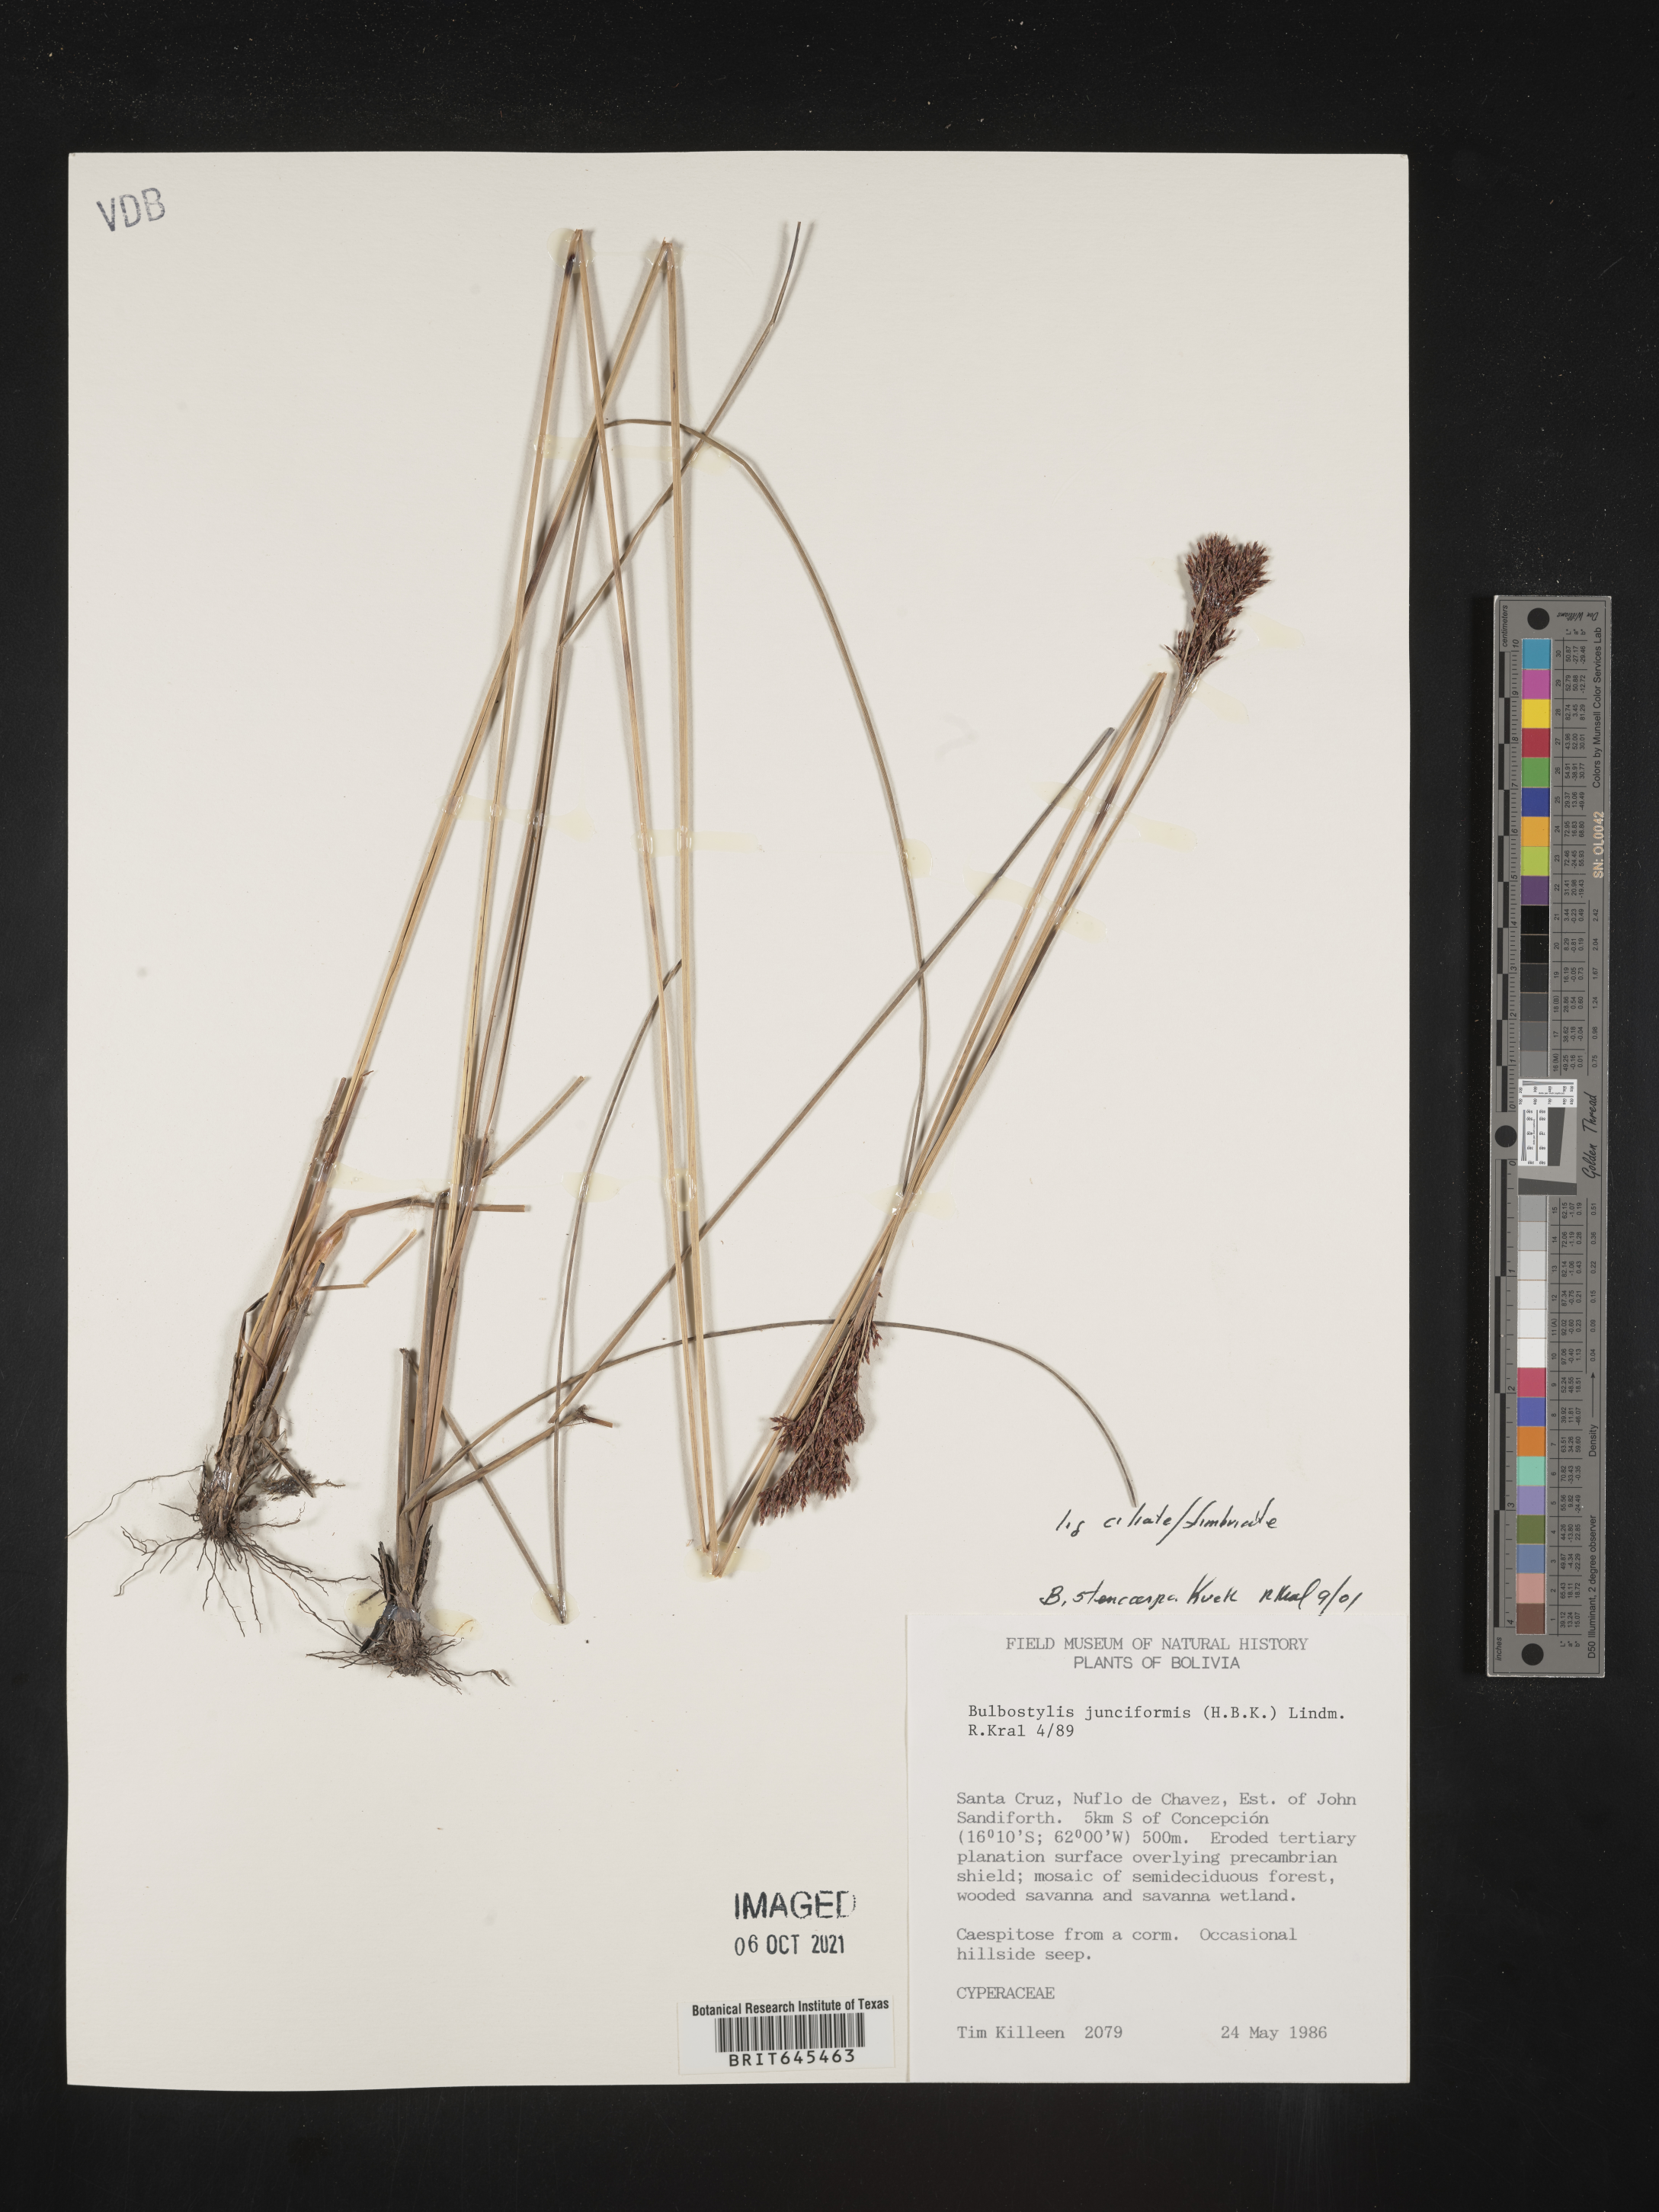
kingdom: Plantae
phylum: Tracheophyta
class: Liliopsida
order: Poales
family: Cyperaceae
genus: Bulbostylis
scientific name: Bulbostylis stenocarpa
